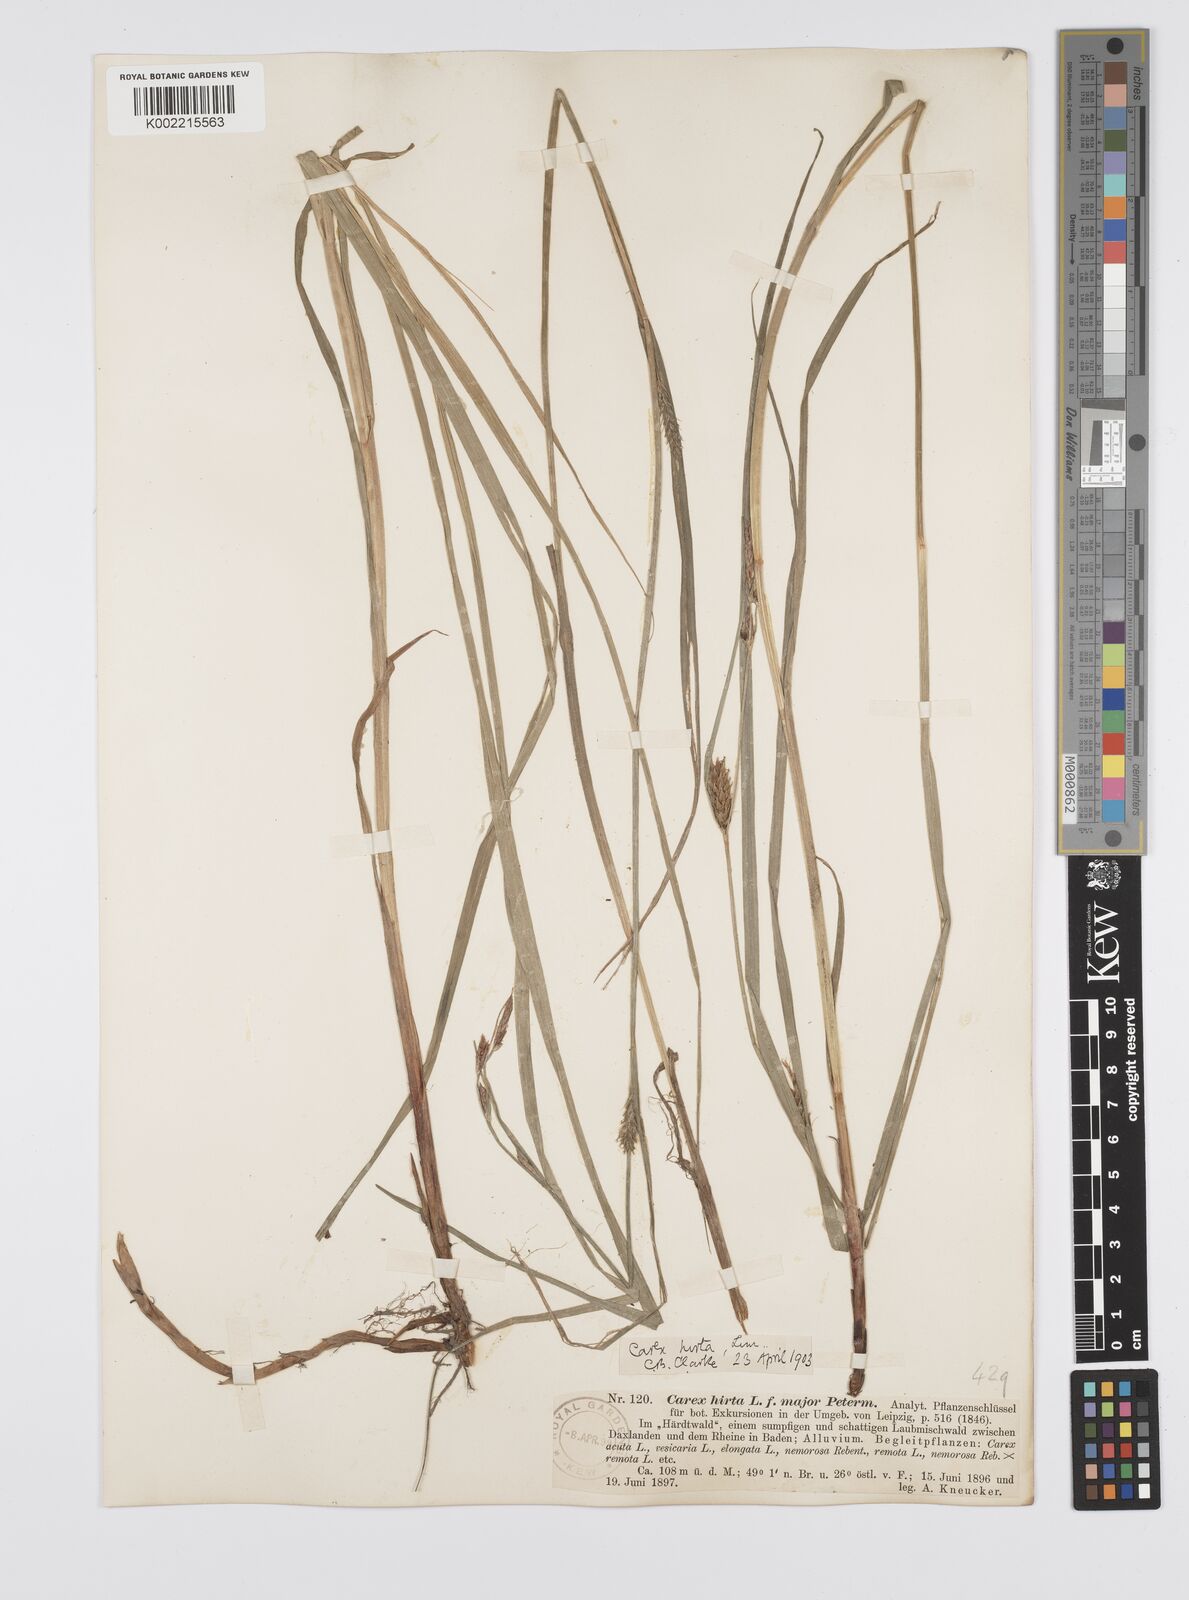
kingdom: Plantae
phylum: Tracheophyta
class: Liliopsida
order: Poales
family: Cyperaceae
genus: Carex
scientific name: Carex hirta
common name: Hairy sedge
